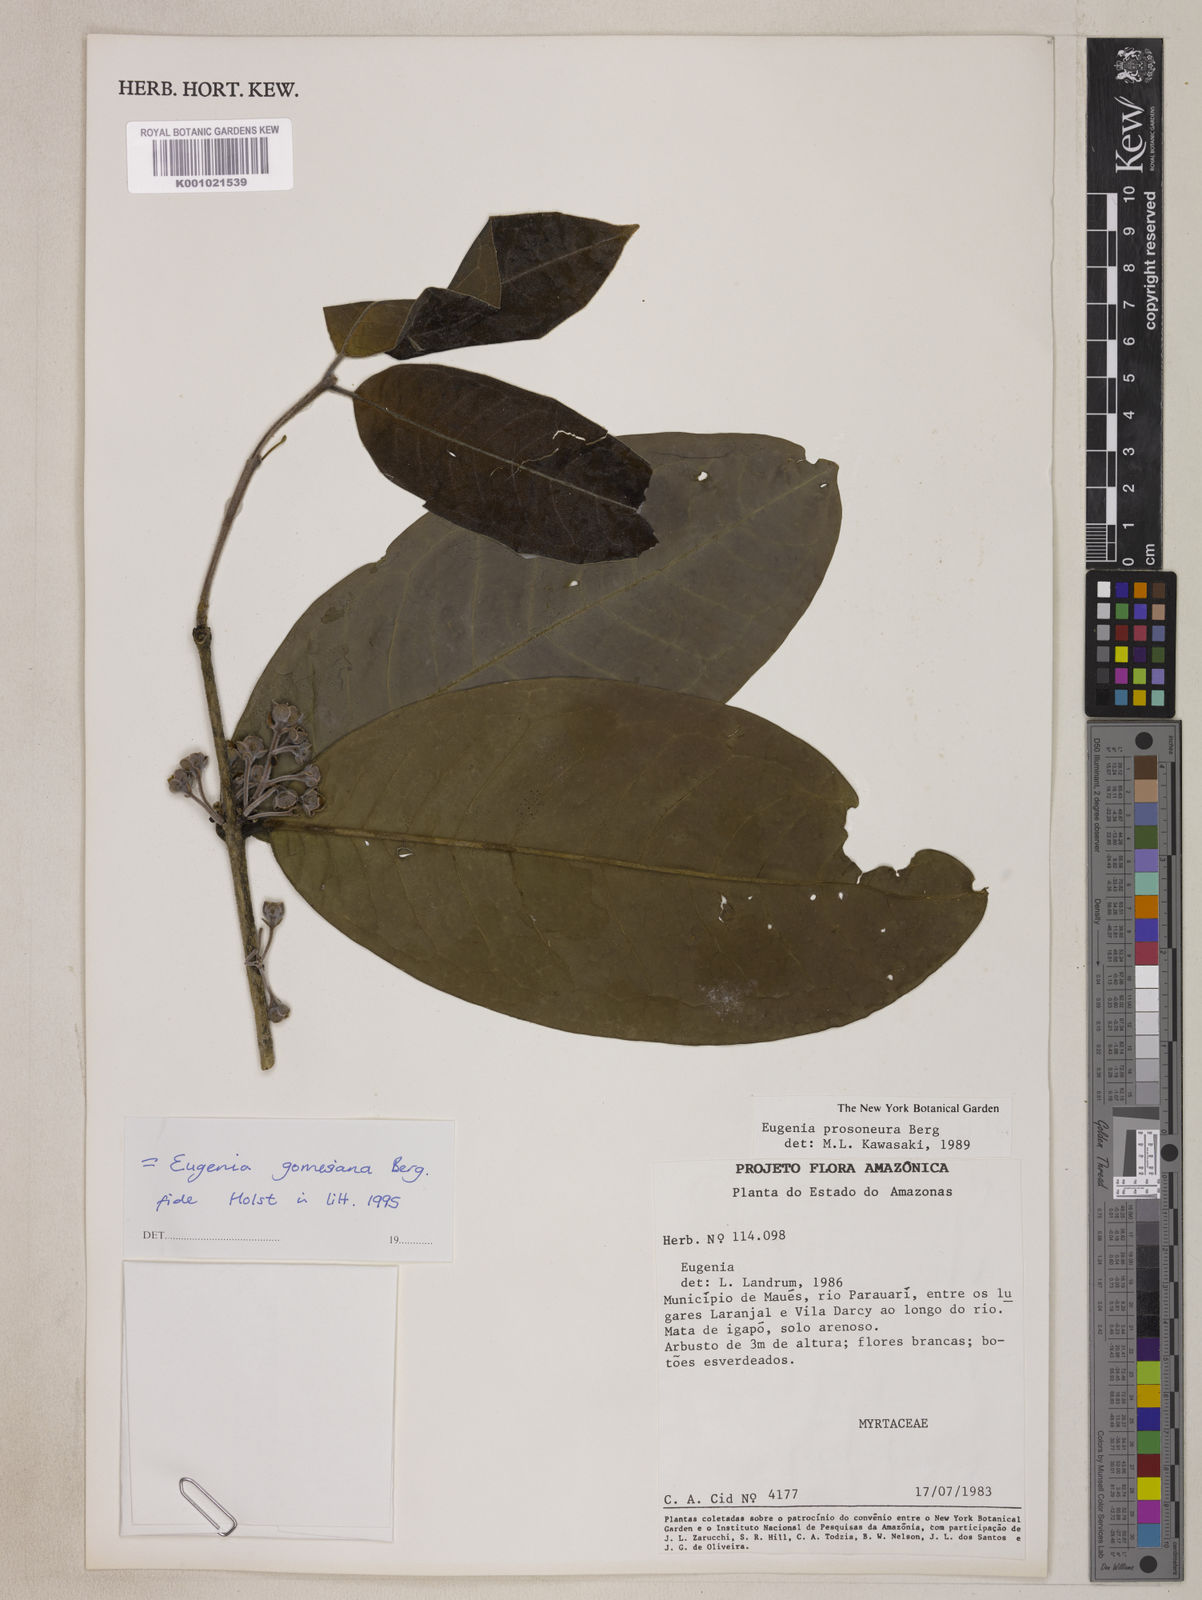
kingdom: Plantae
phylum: Tracheophyta
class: Magnoliopsida
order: Myrtales
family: Myrtaceae
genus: Eugenia
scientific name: Eugenia gomesiana
